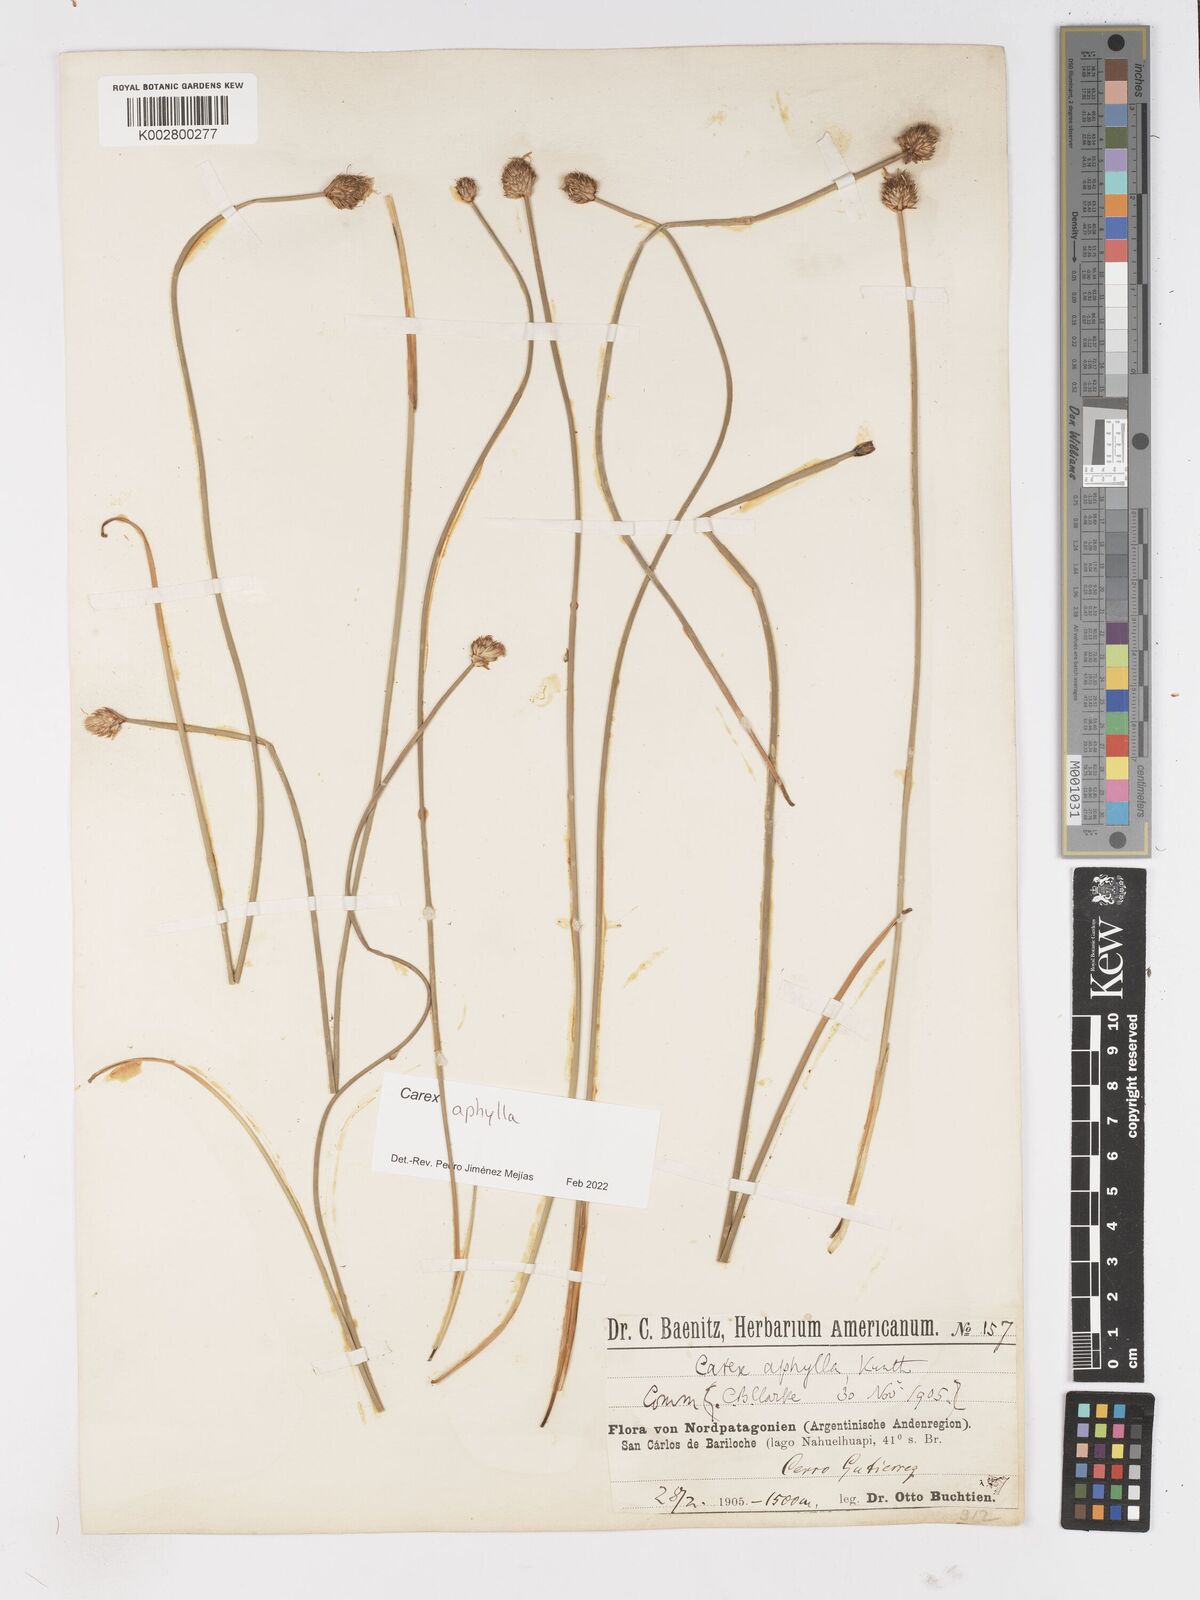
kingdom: Plantae
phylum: Tracheophyta
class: Liliopsida
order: Poales
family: Cyperaceae
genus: Carex
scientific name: Carex aphylla
